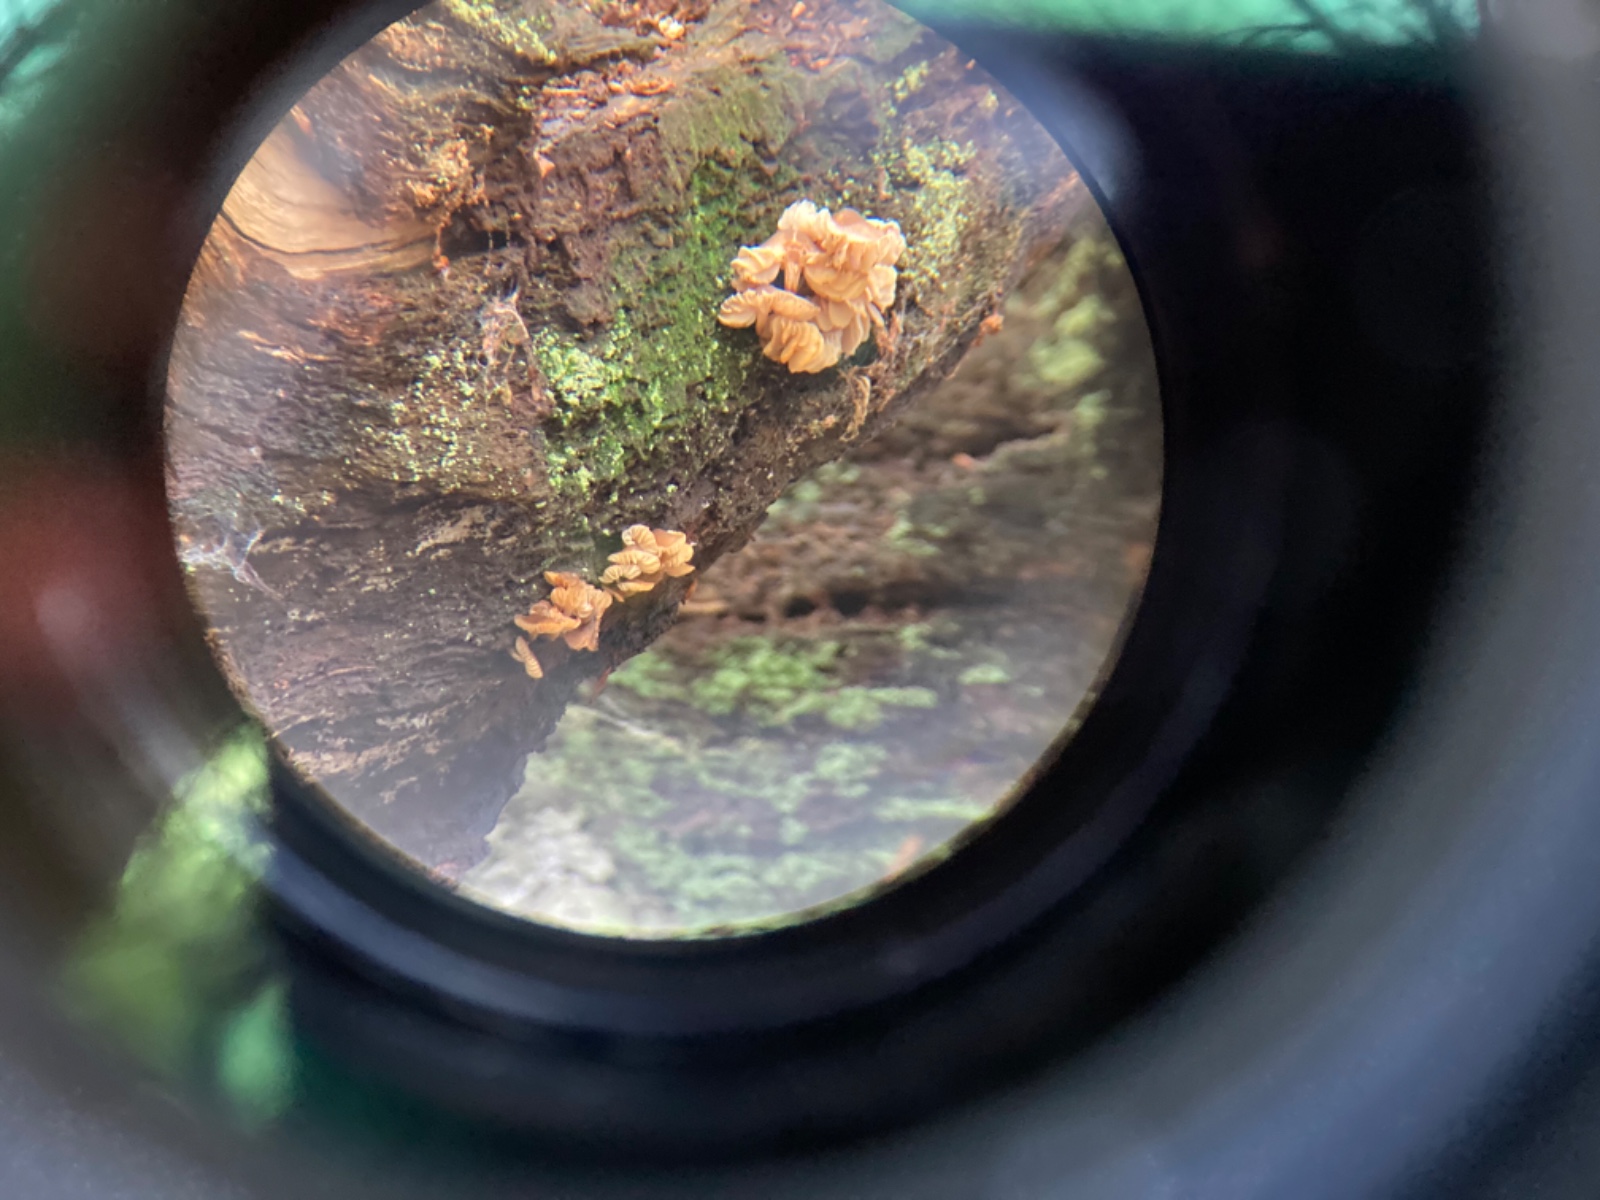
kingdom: Fungi
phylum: Basidiomycota
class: Agaricomycetes
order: Agaricales
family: Physalacriaceae
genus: Flammulina
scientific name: Flammulina velutipes
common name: gul fløjlsfod
